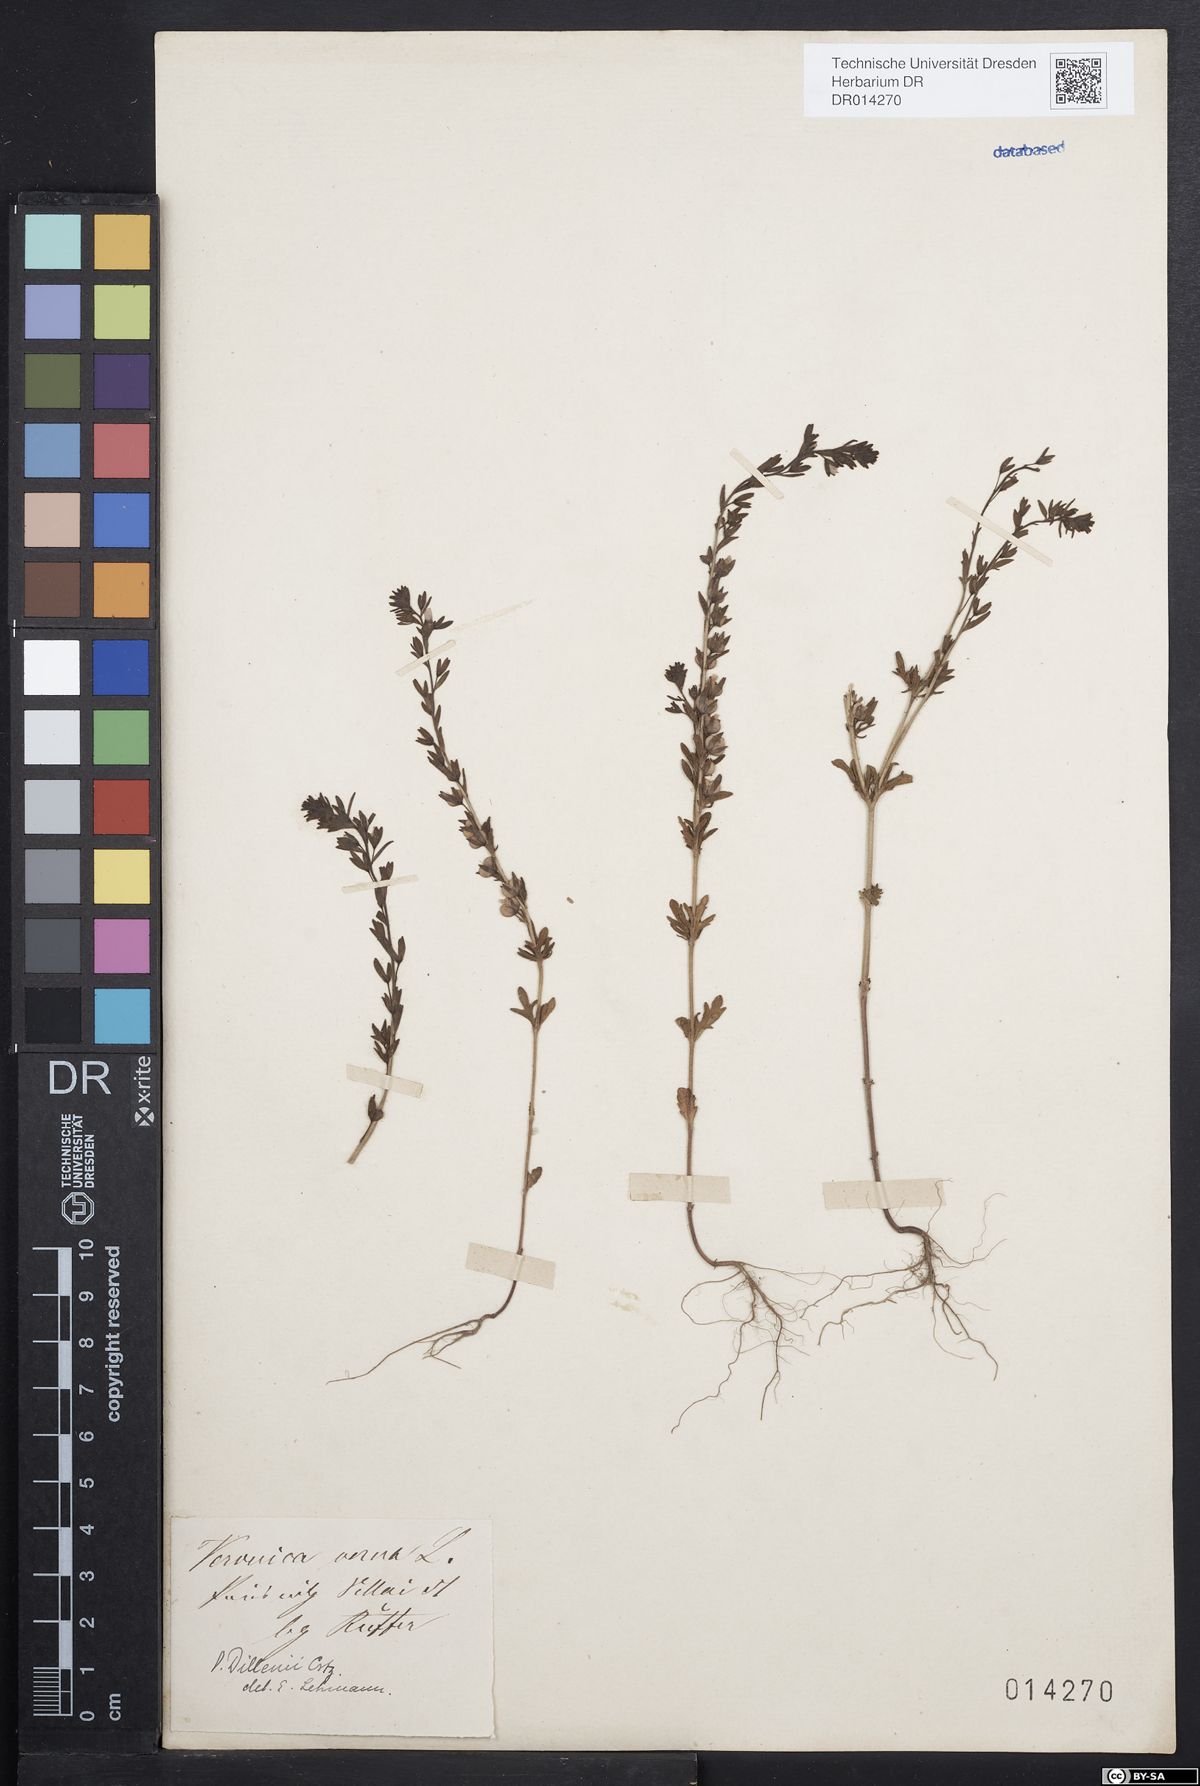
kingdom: Plantae
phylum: Tracheophyta
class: Magnoliopsida
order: Lamiales
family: Plantaginaceae
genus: Veronica
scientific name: Veronica dillenii
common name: Dillenius' speedwell
